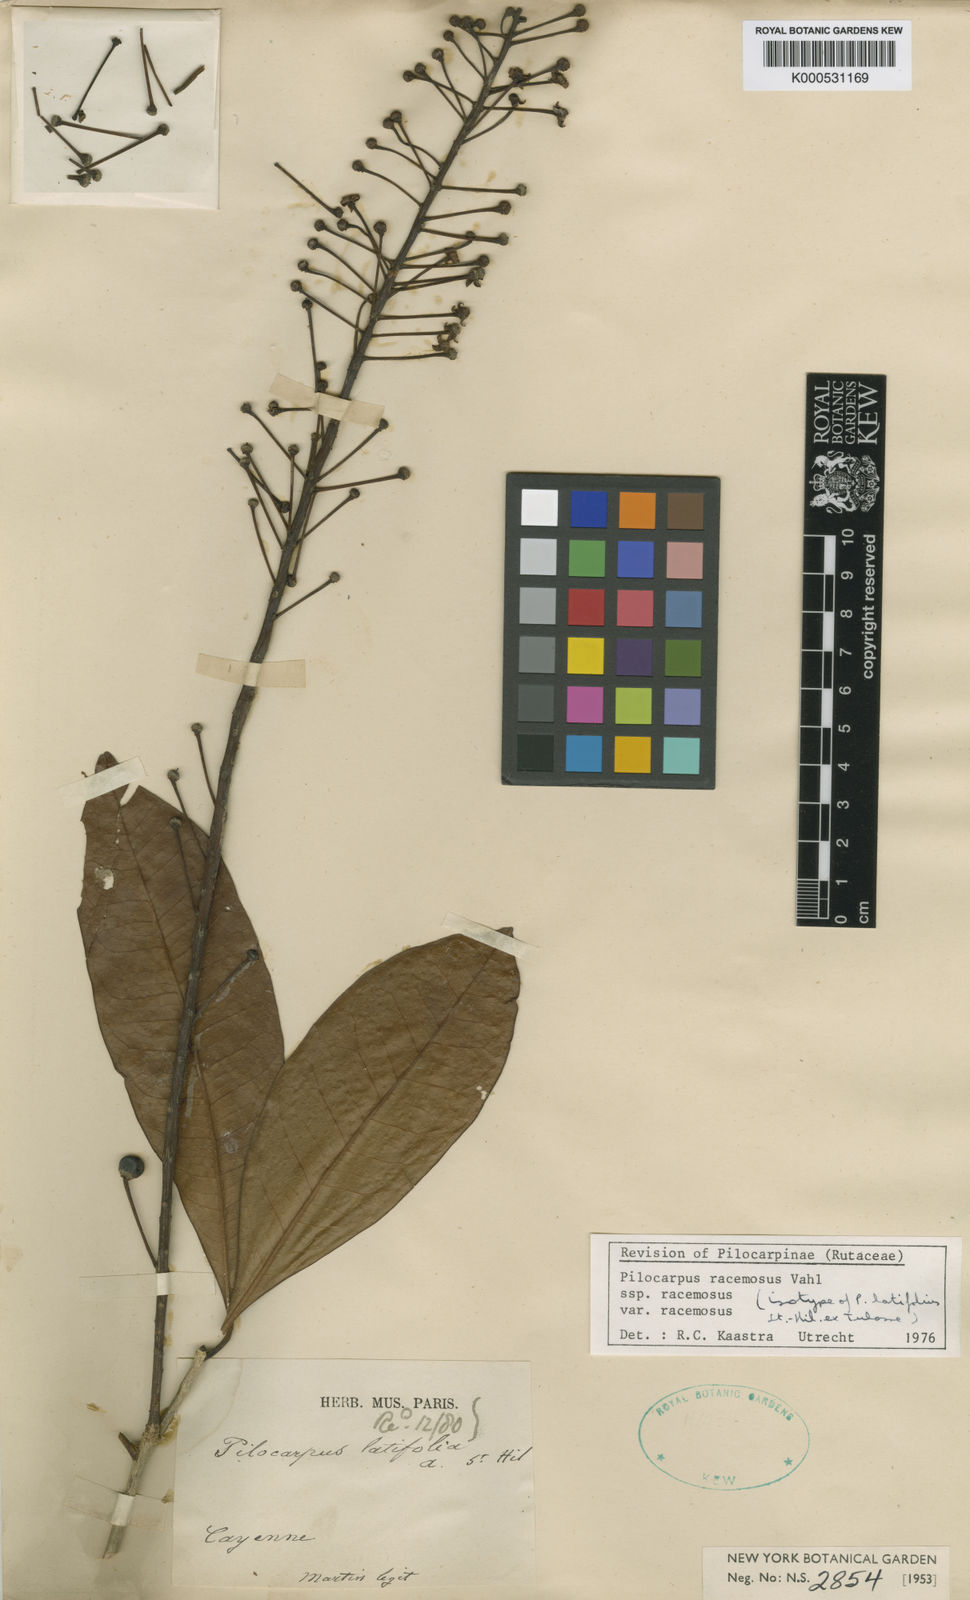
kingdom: Plantae
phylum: Tracheophyta
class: Magnoliopsida
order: Sapindales
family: Rutaceae
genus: Pilocarpus
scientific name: Pilocarpus racemosus
